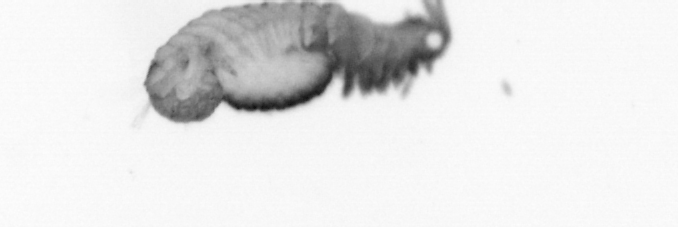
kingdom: Animalia
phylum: Annelida
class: Polychaeta
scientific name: Polychaeta
